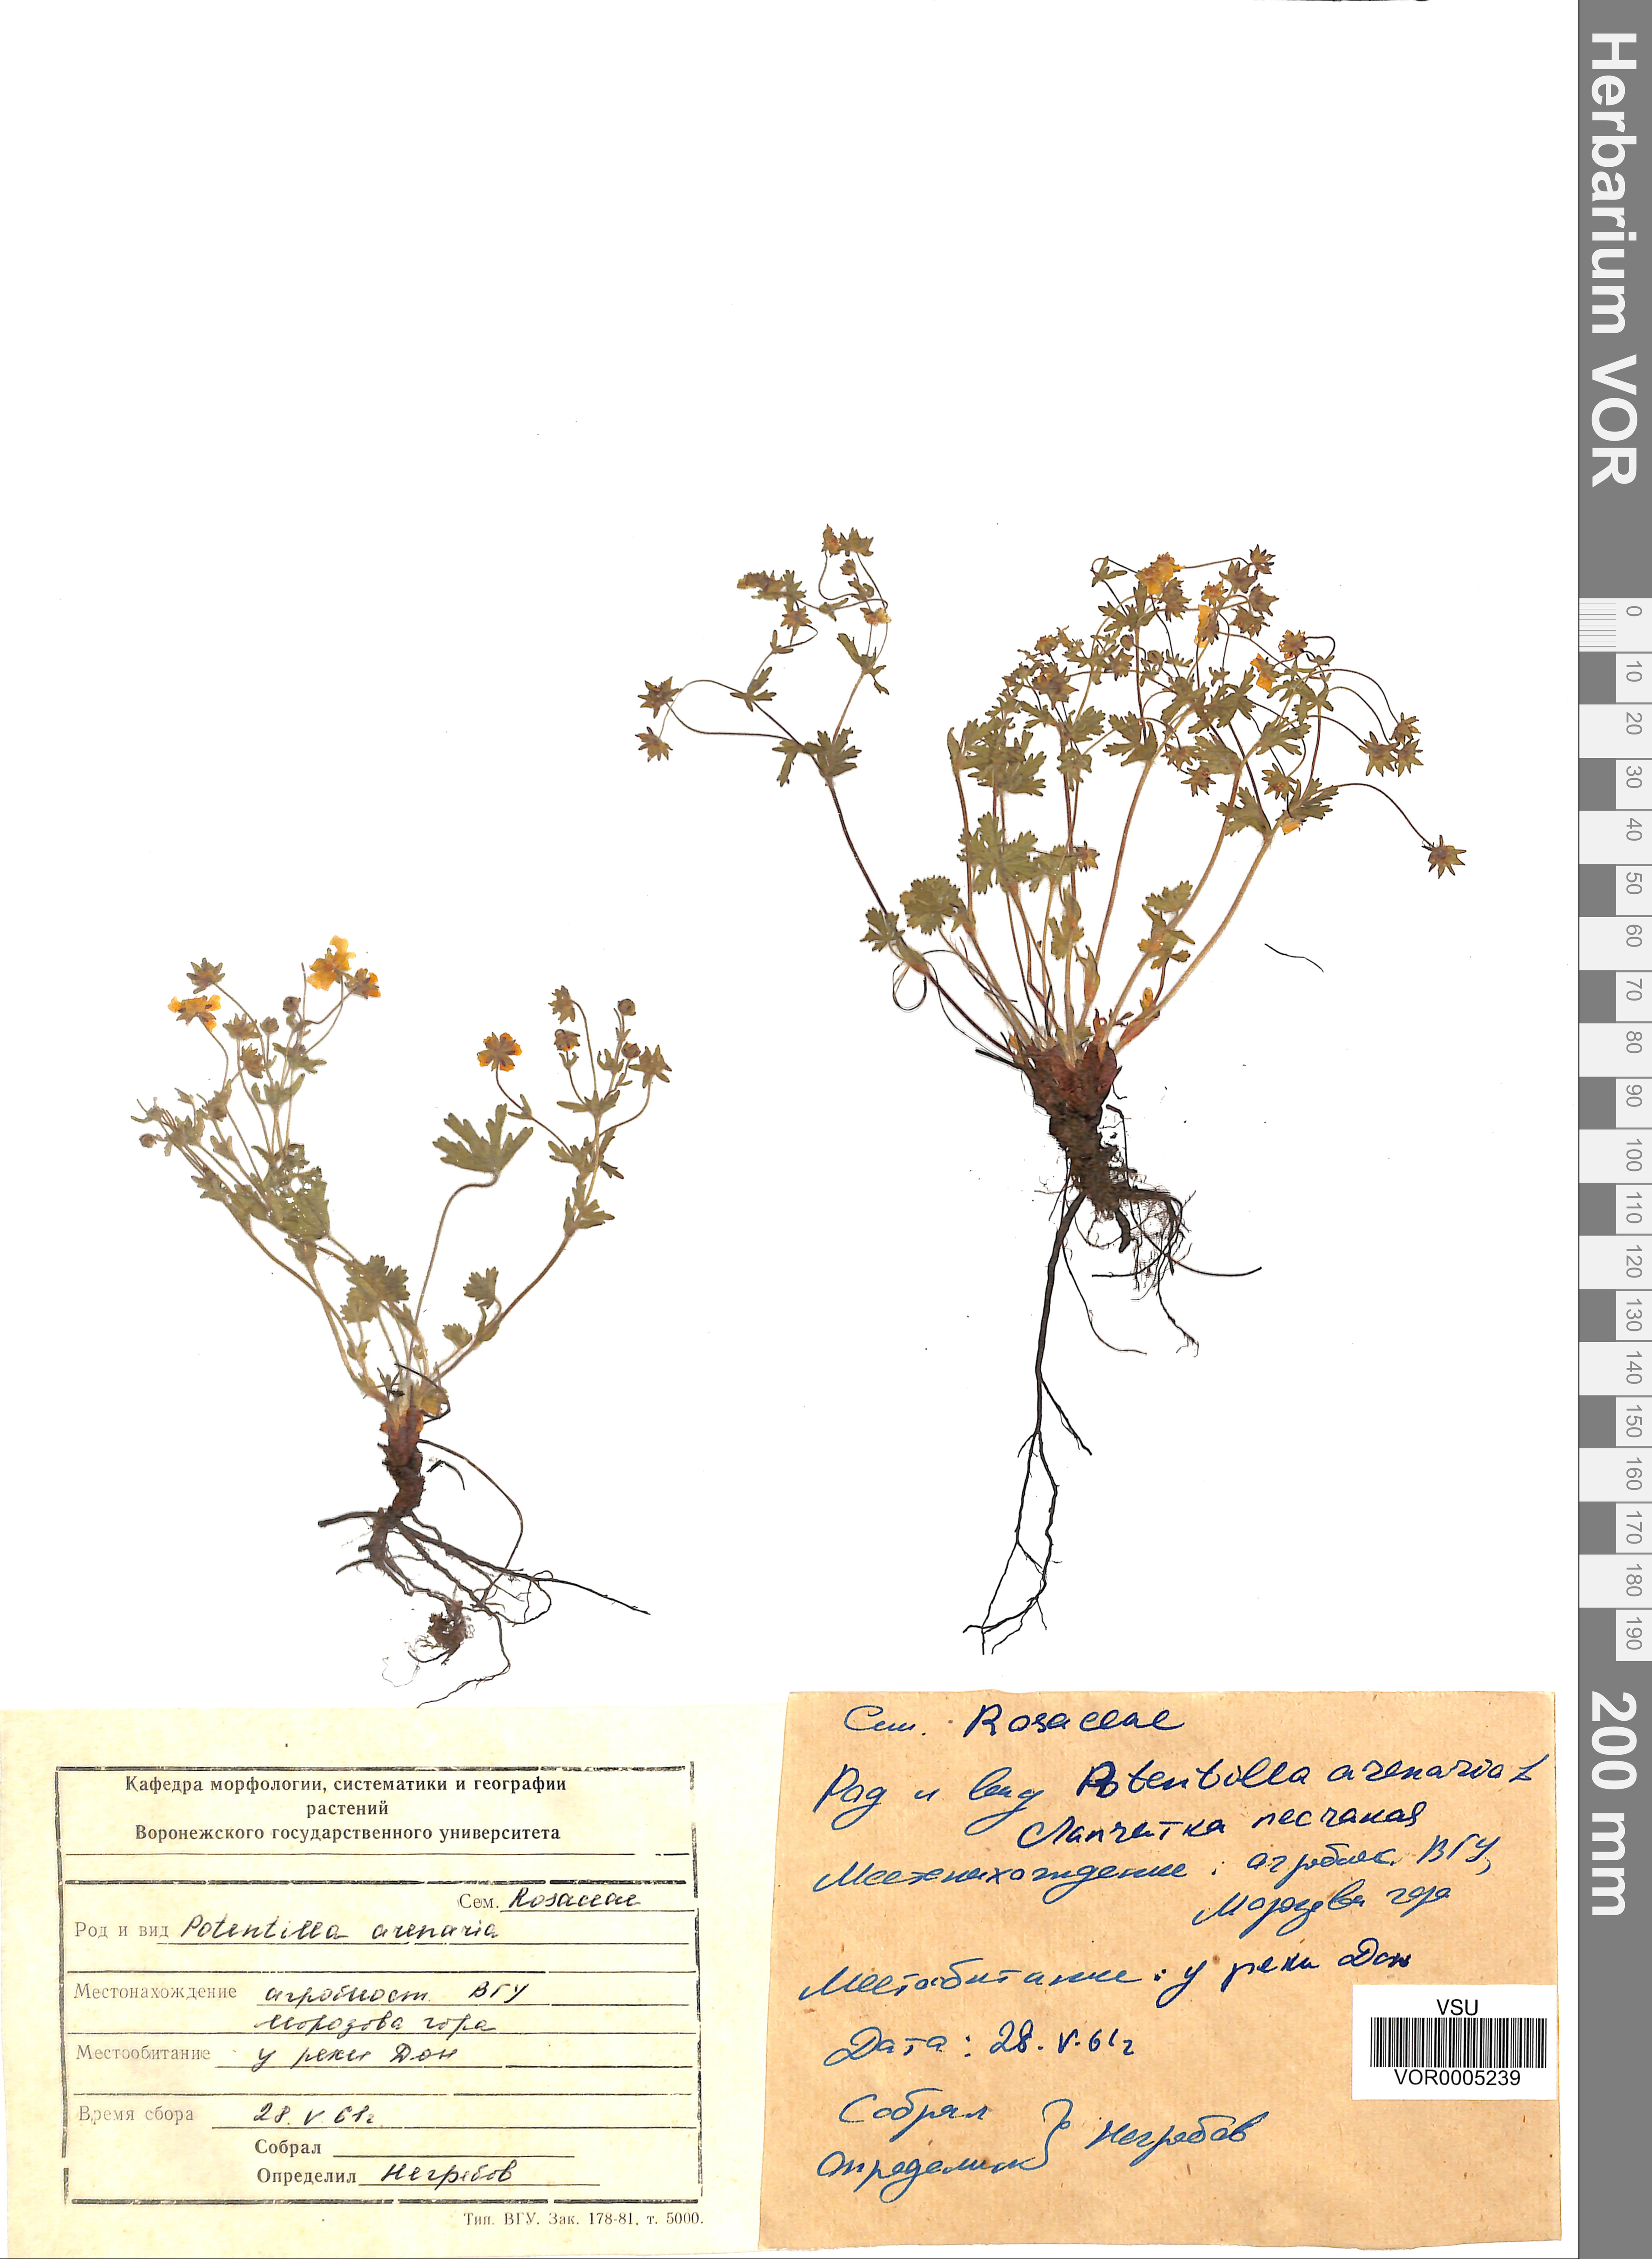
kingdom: Plantae
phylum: Tracheophyta
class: Magnoliopsida
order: Rosales
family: Rosaceae
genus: Potentilla
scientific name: Potentilla patula
